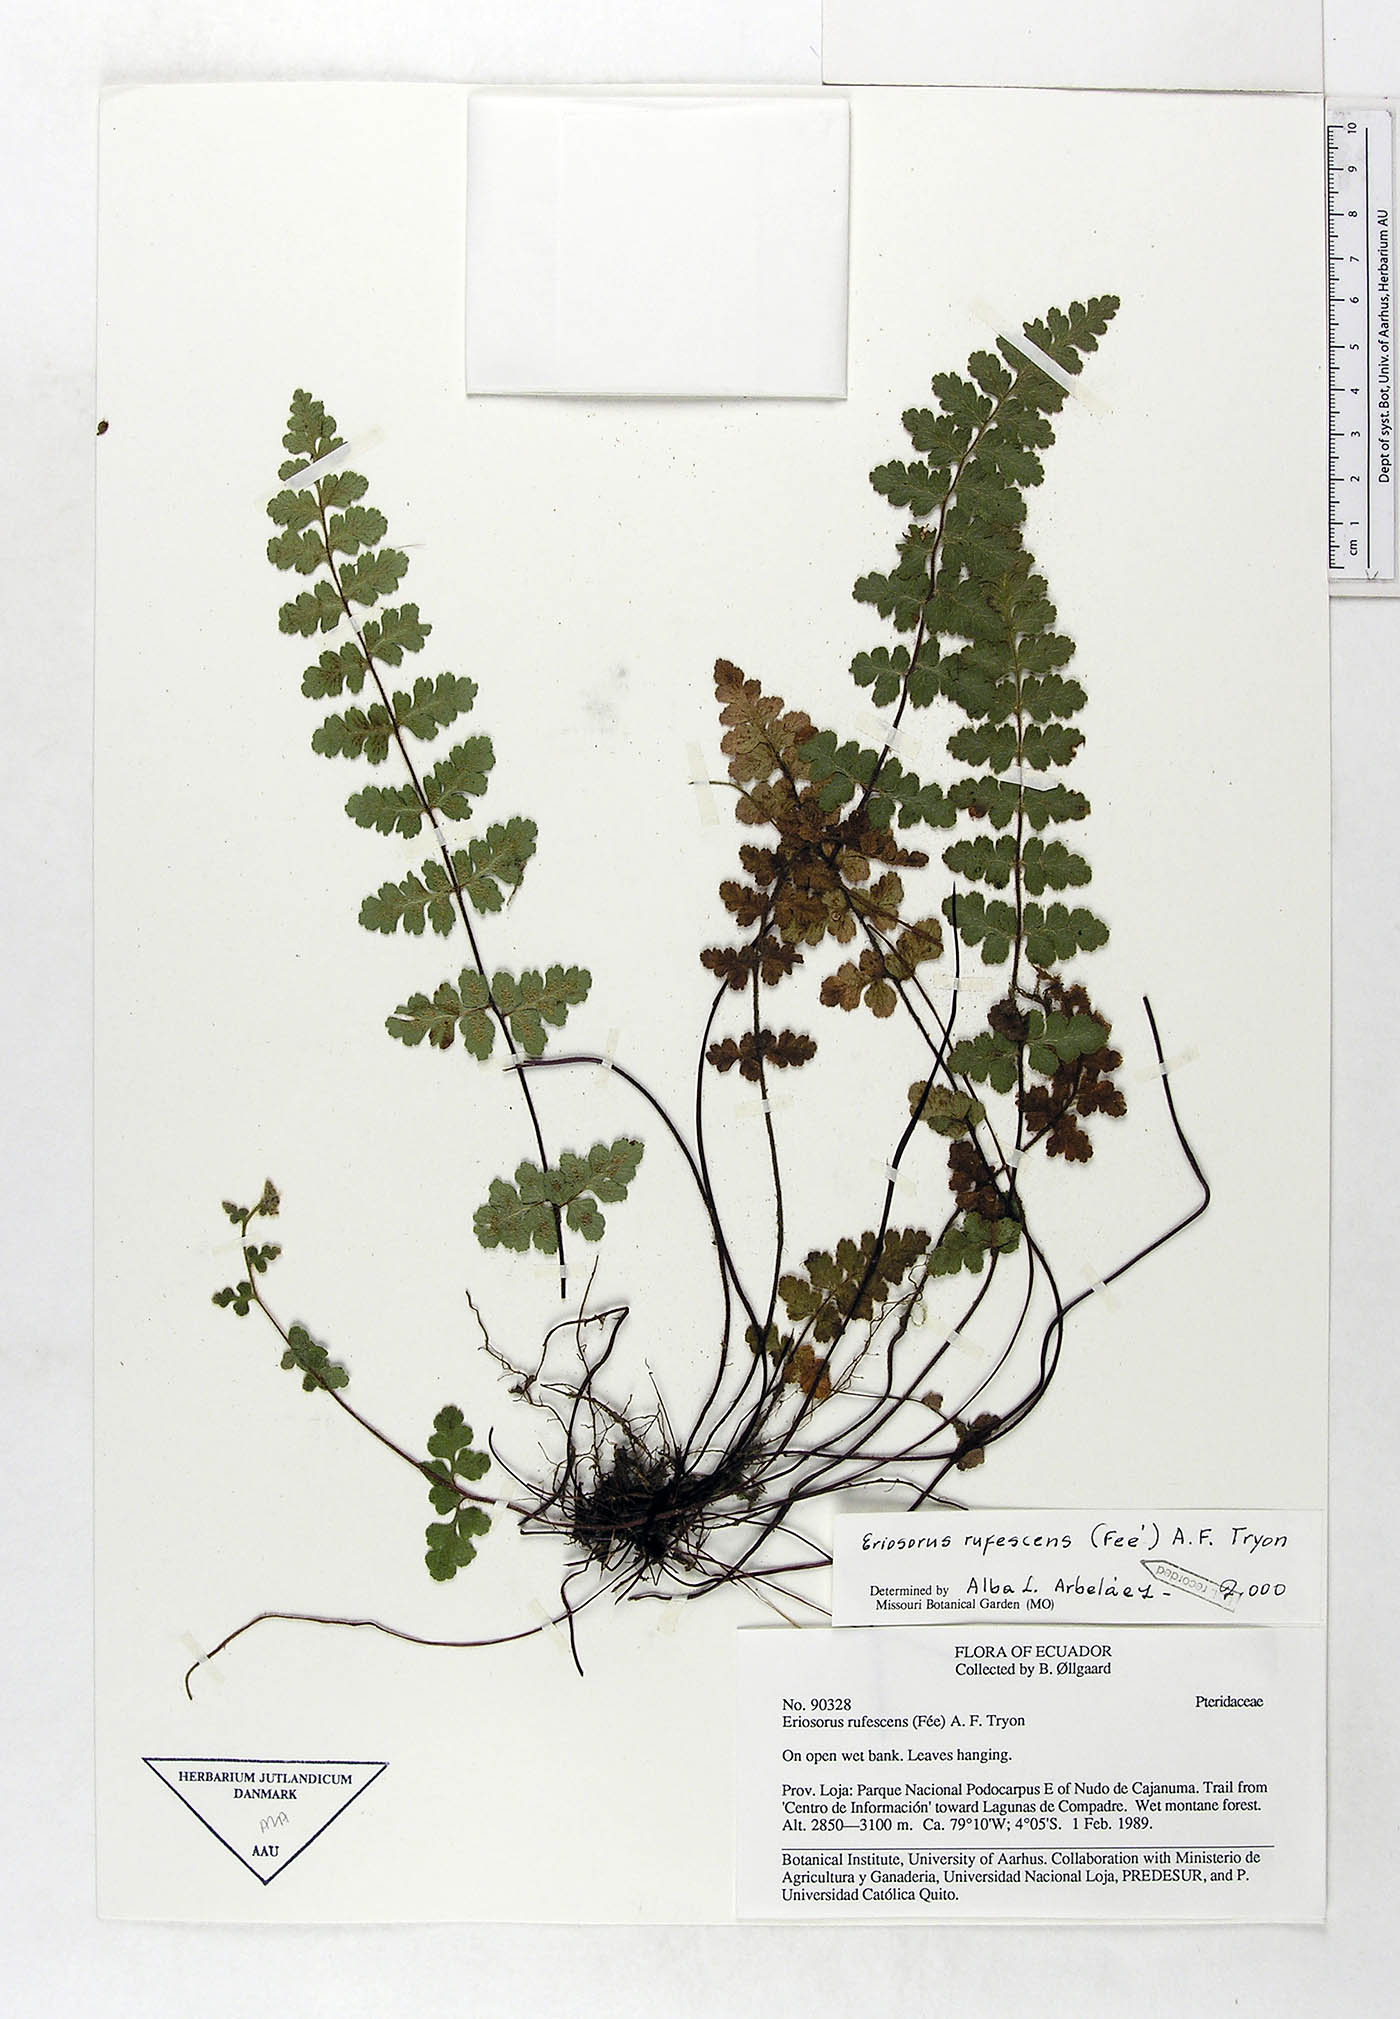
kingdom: Plantae
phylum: Tracheophyta
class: Polypodiopsida
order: Polypodiales
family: Pteridaceae
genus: Jamesonia
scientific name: Jamesonia rufescens
